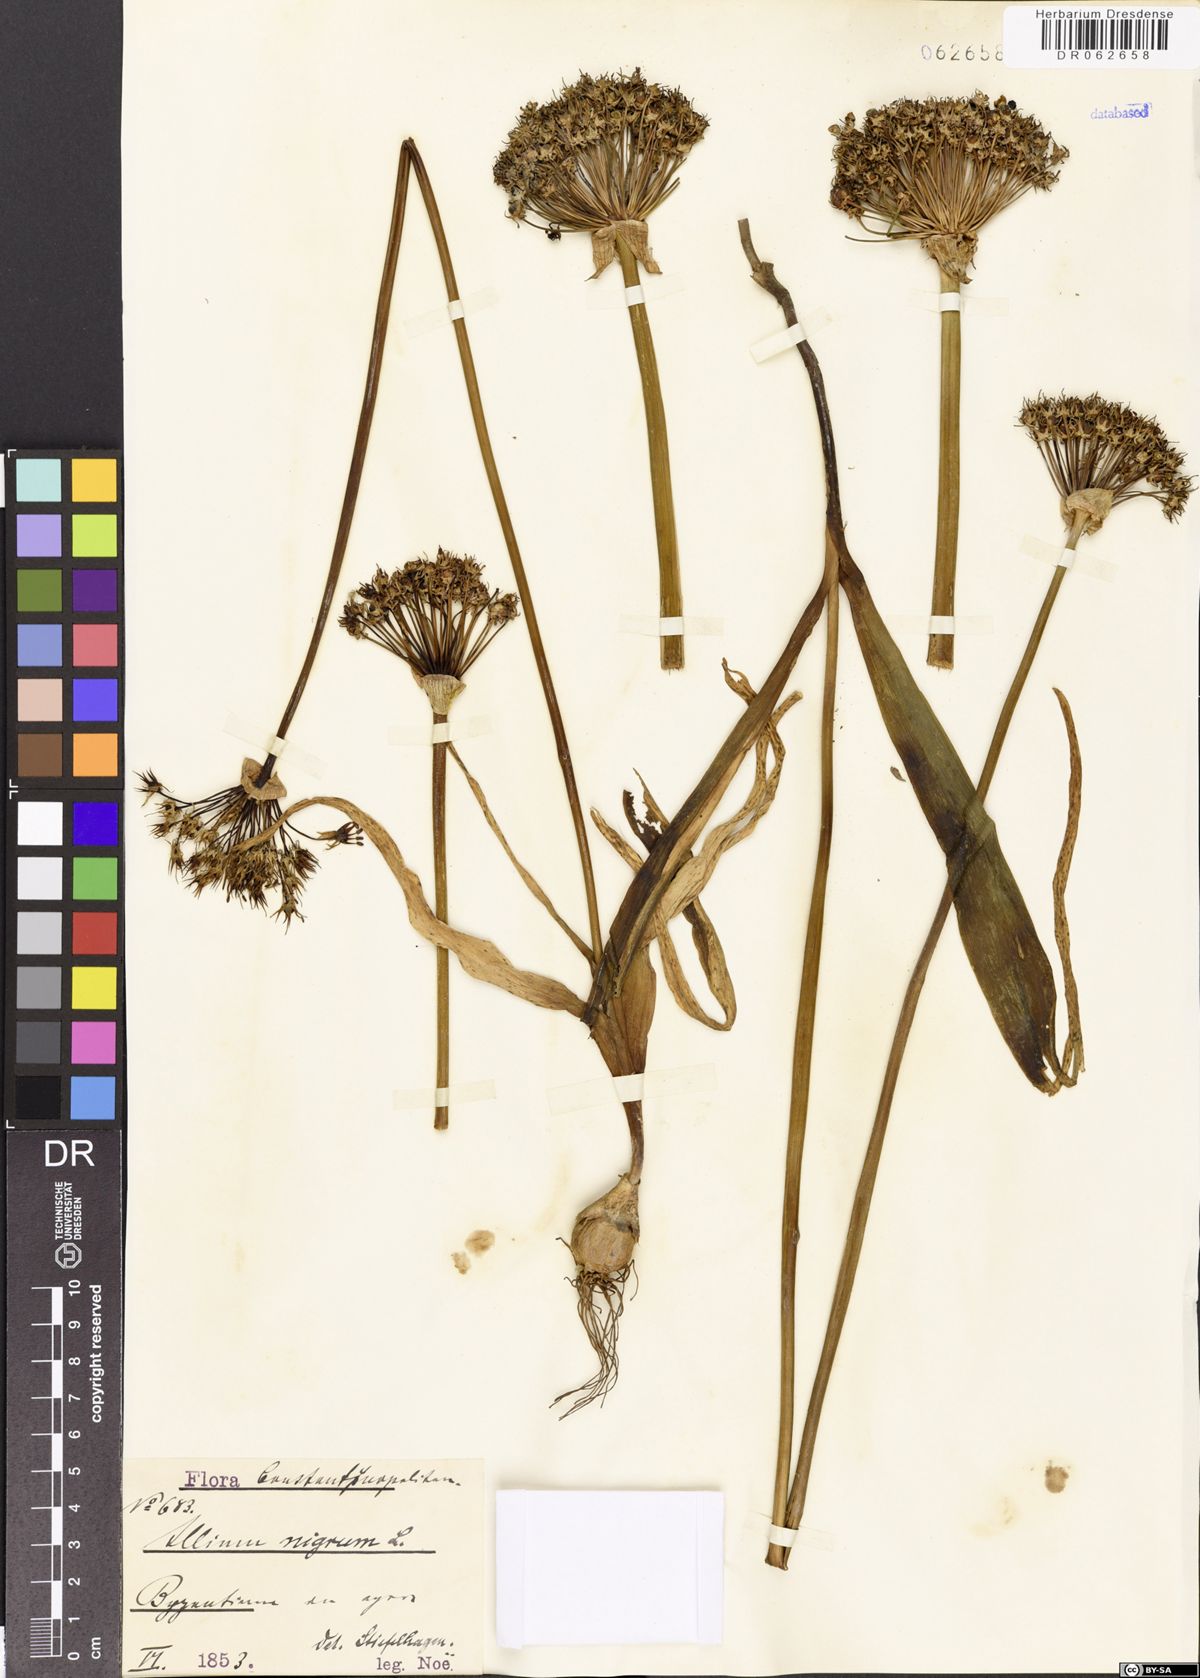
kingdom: Plantae
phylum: Tracheophyta
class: Liliopsida
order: Asparagales
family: Amaryllidaceae
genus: Allium
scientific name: Allium nigrum
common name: Black garlic
